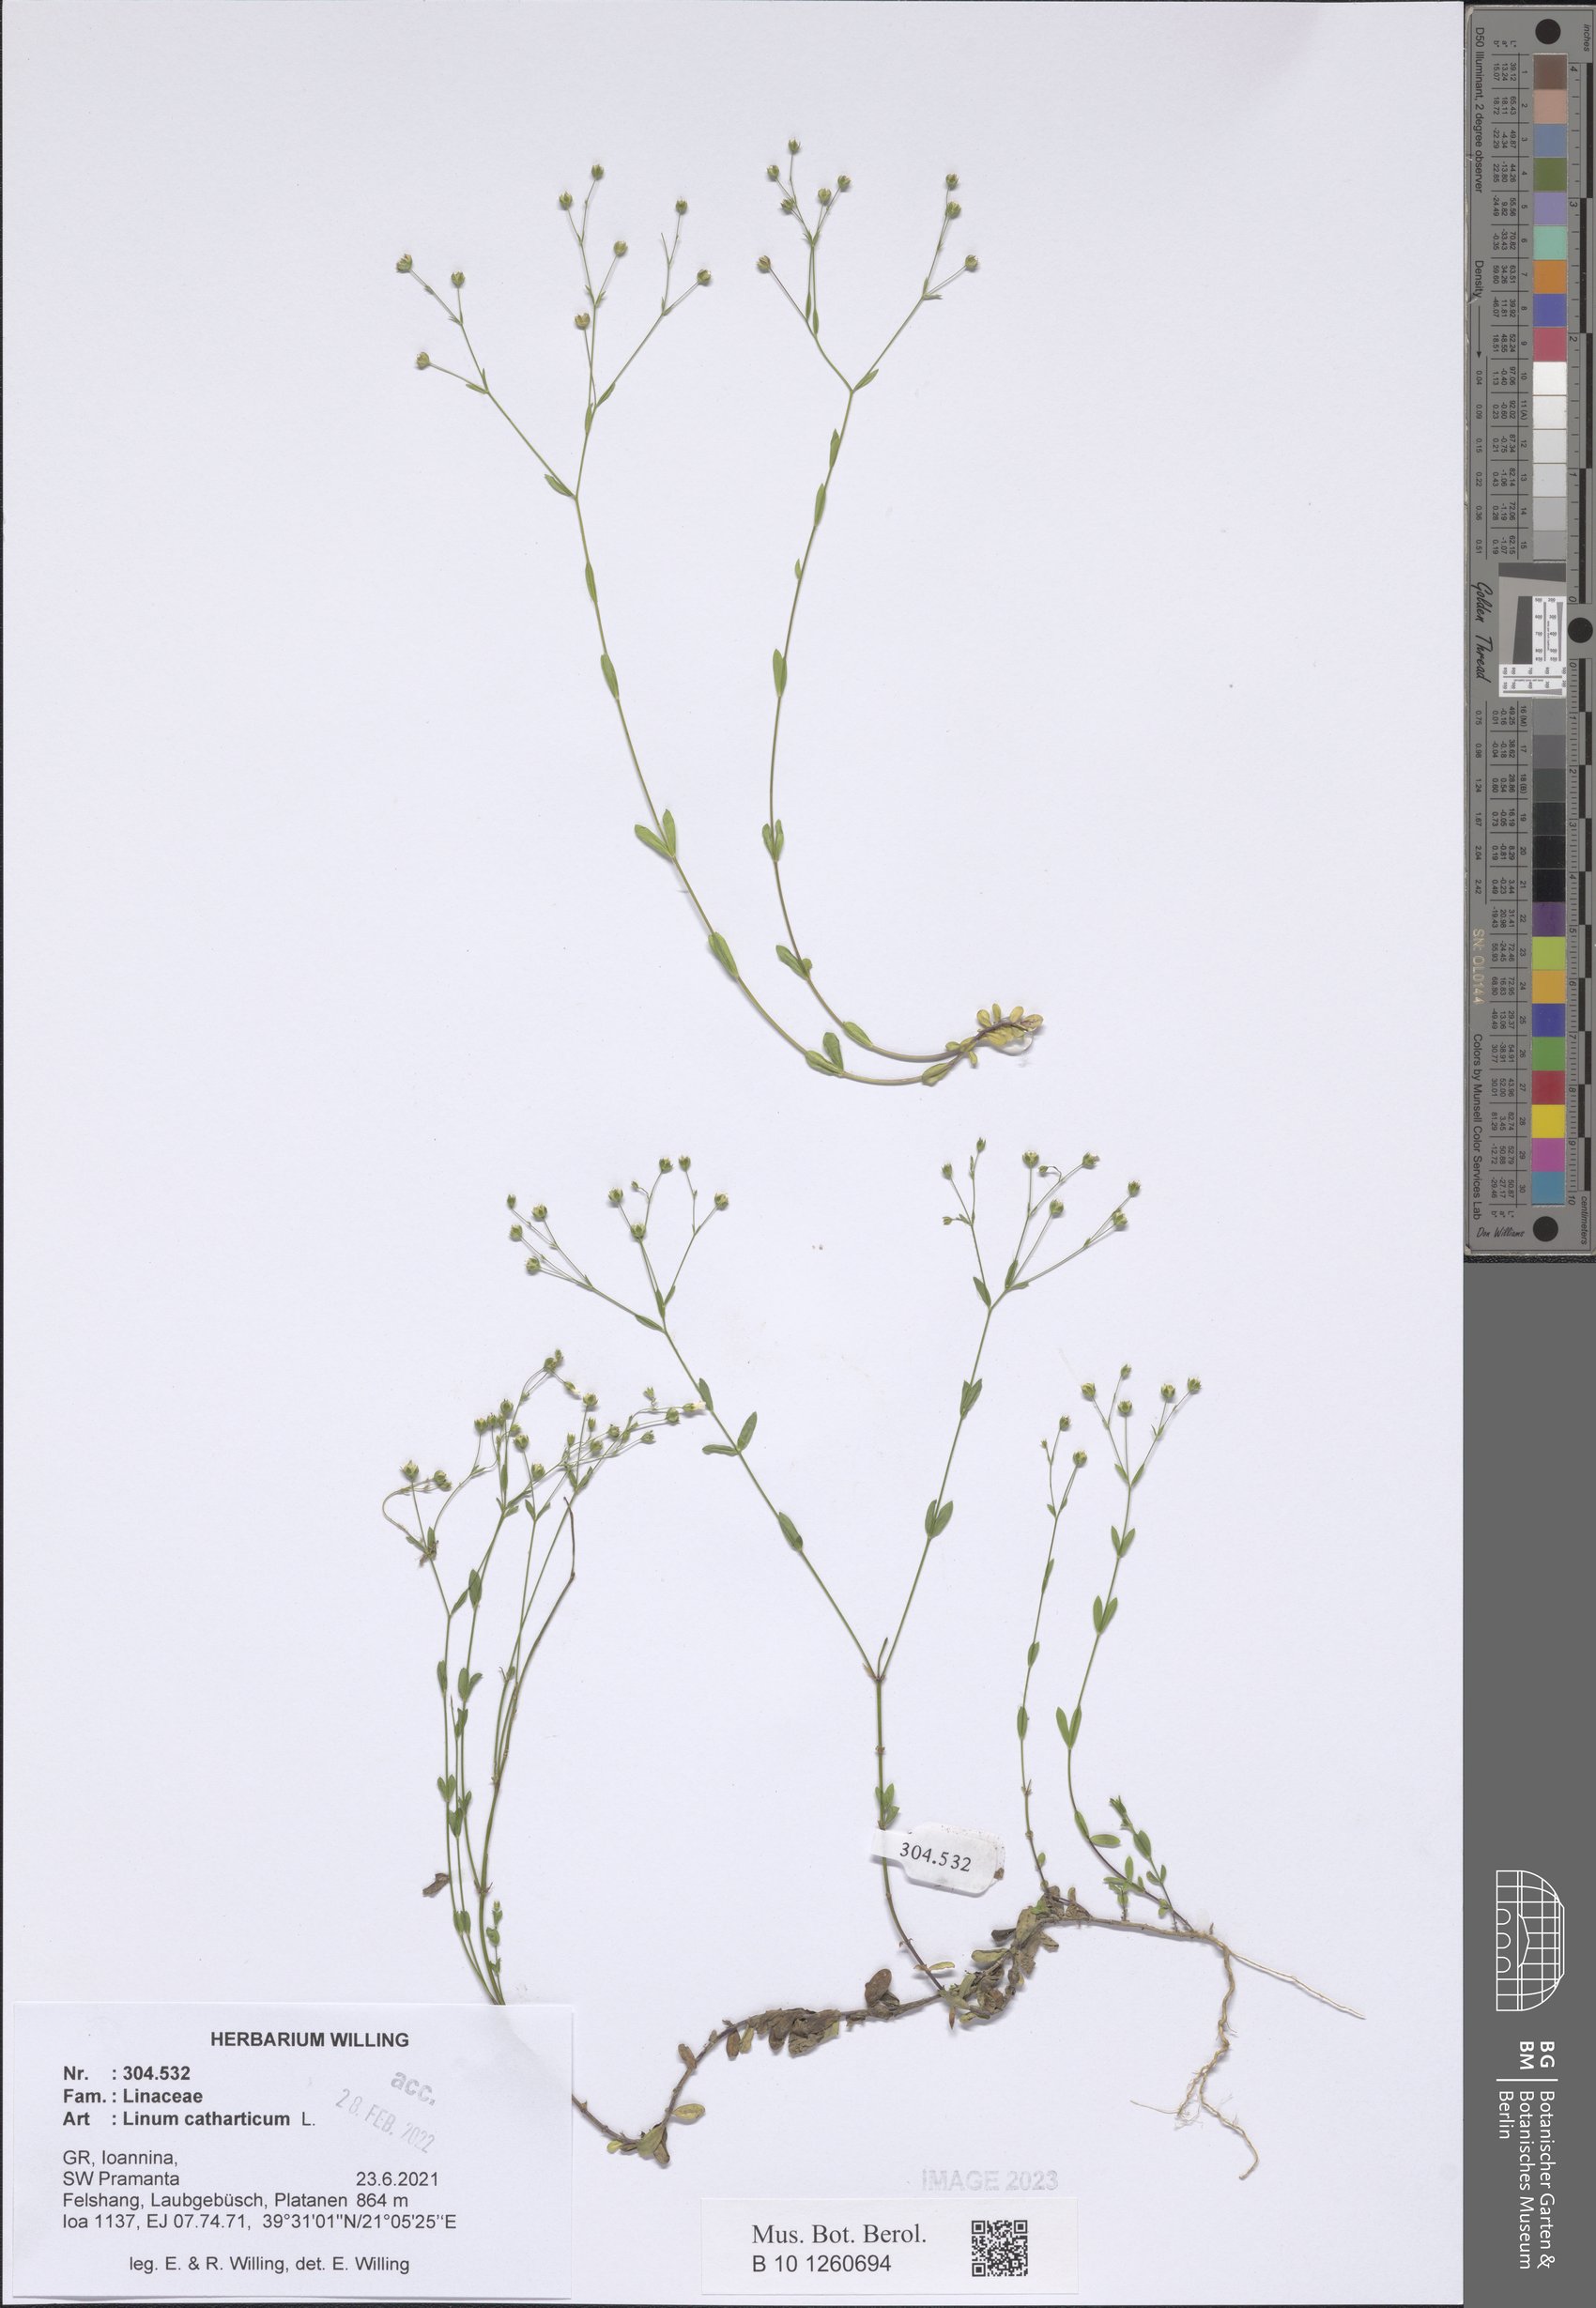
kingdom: Plantae
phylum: Tracheophyta
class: Magnoliopsida
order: Malpighiales
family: Linaceae
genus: Linum
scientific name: Linum catharticum
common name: Fairy flax
